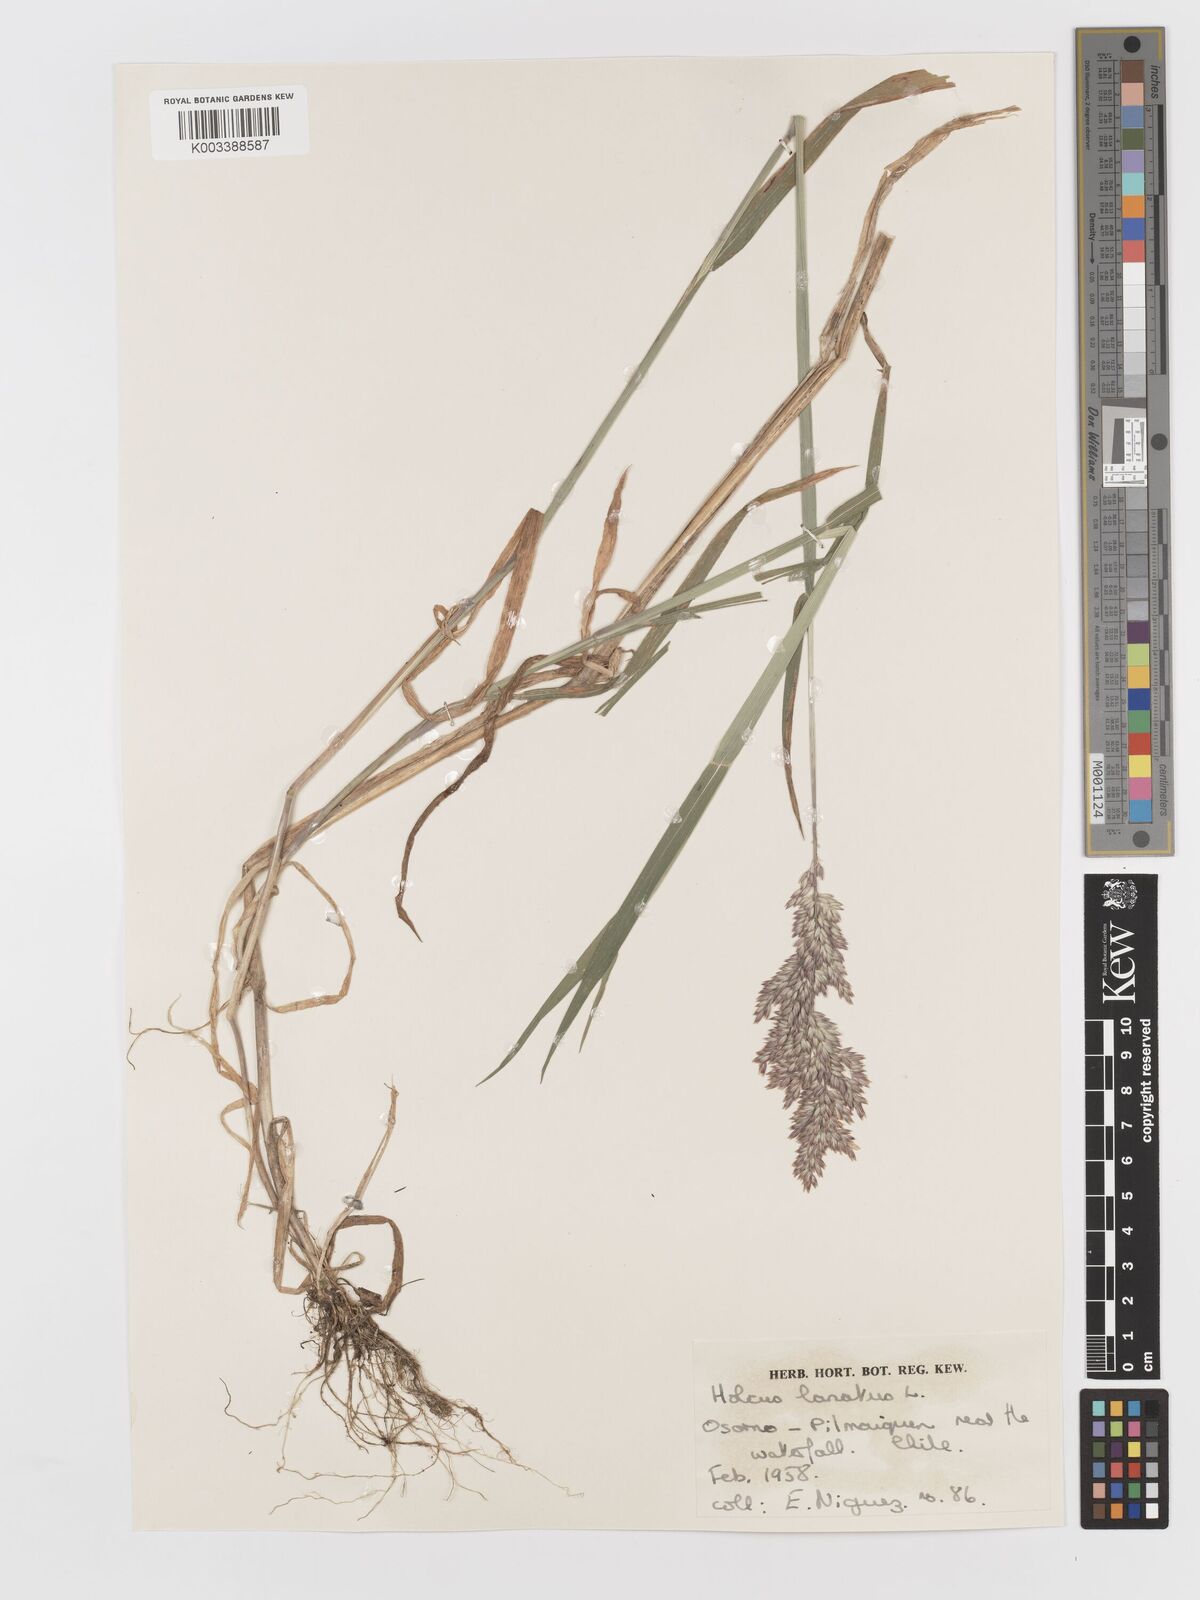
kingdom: Plantae
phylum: Tracheophyta
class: Liliopsida
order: Poales
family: Poaceae
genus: Holcus
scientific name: Holcus lanatus
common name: Yorkshire-fog
